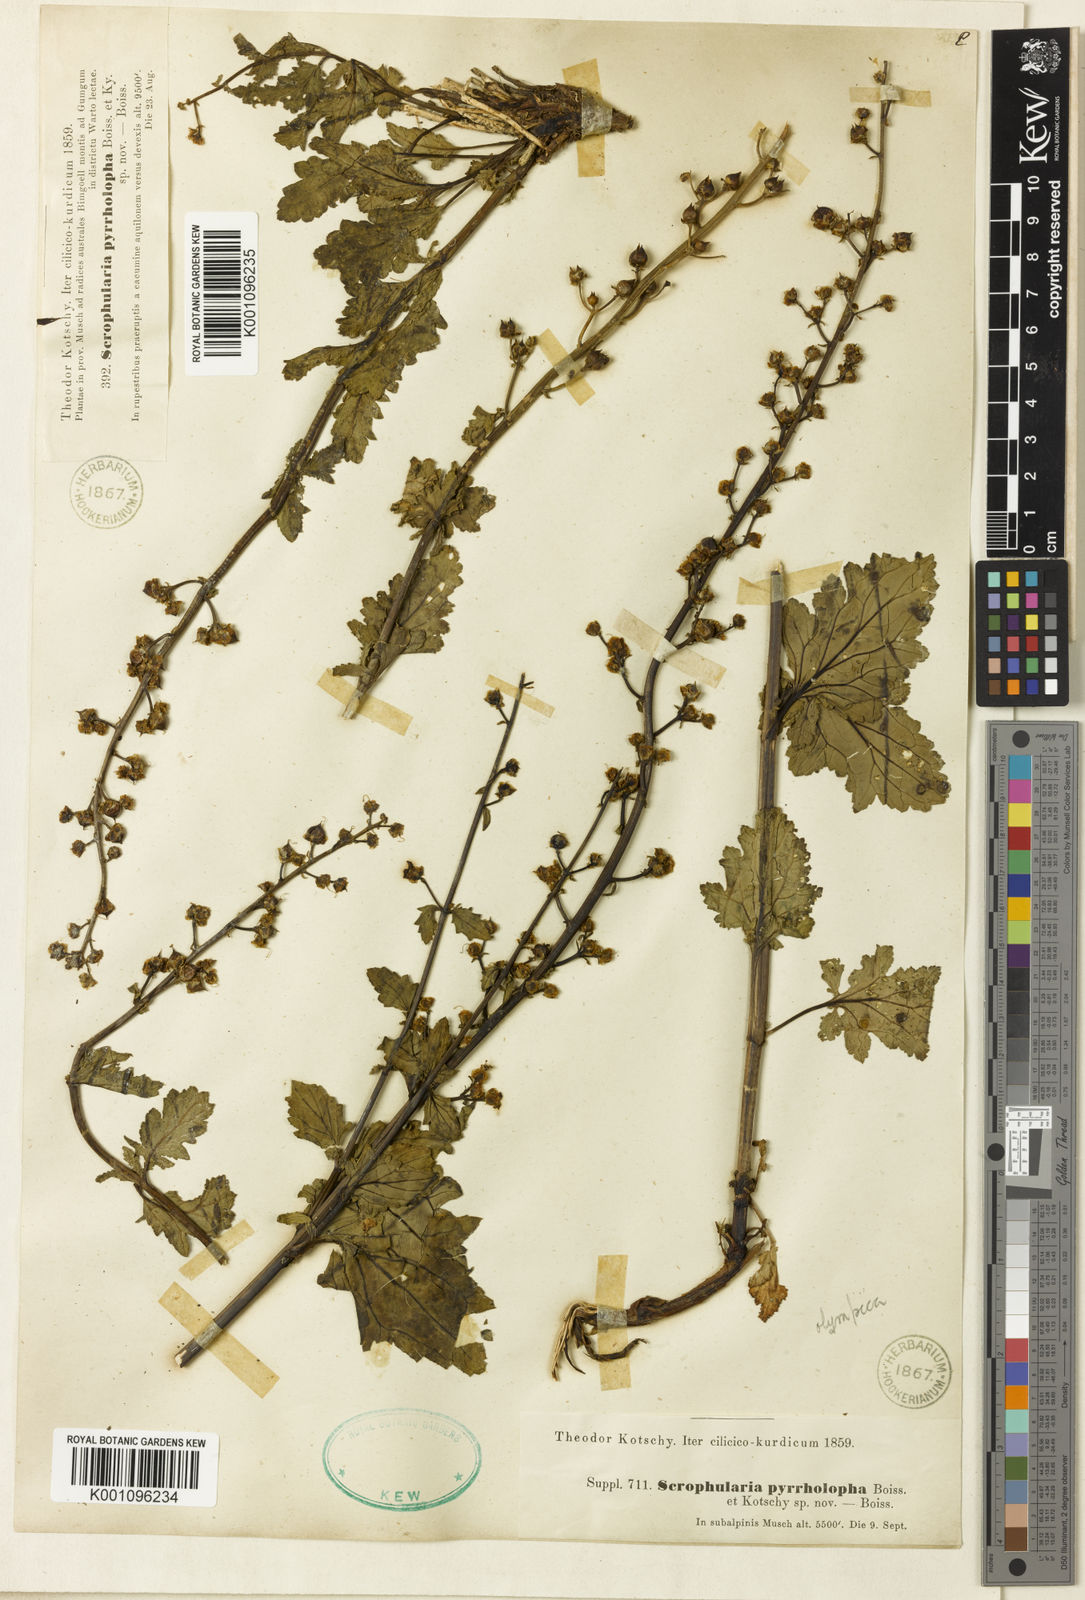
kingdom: Plantae
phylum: Tracheophyta
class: Magnoliopsida
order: Lamiales
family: Scrophulariaceae
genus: Scrophularia
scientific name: Scrophularia olympica
